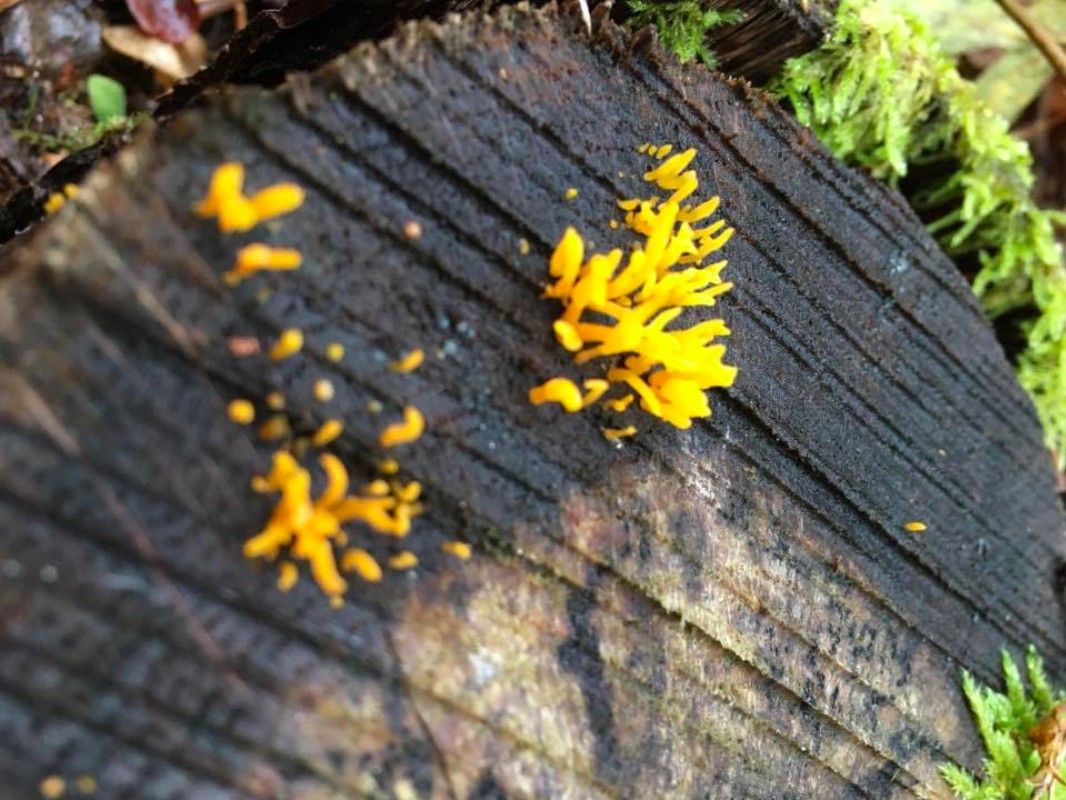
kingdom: Fungi
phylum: Basidiomycota
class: Dacrymycetes
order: Dacrymycetales
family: Dacrymycetaceae
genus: Calocera
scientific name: Calocera cornea
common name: liden guldgaffel
